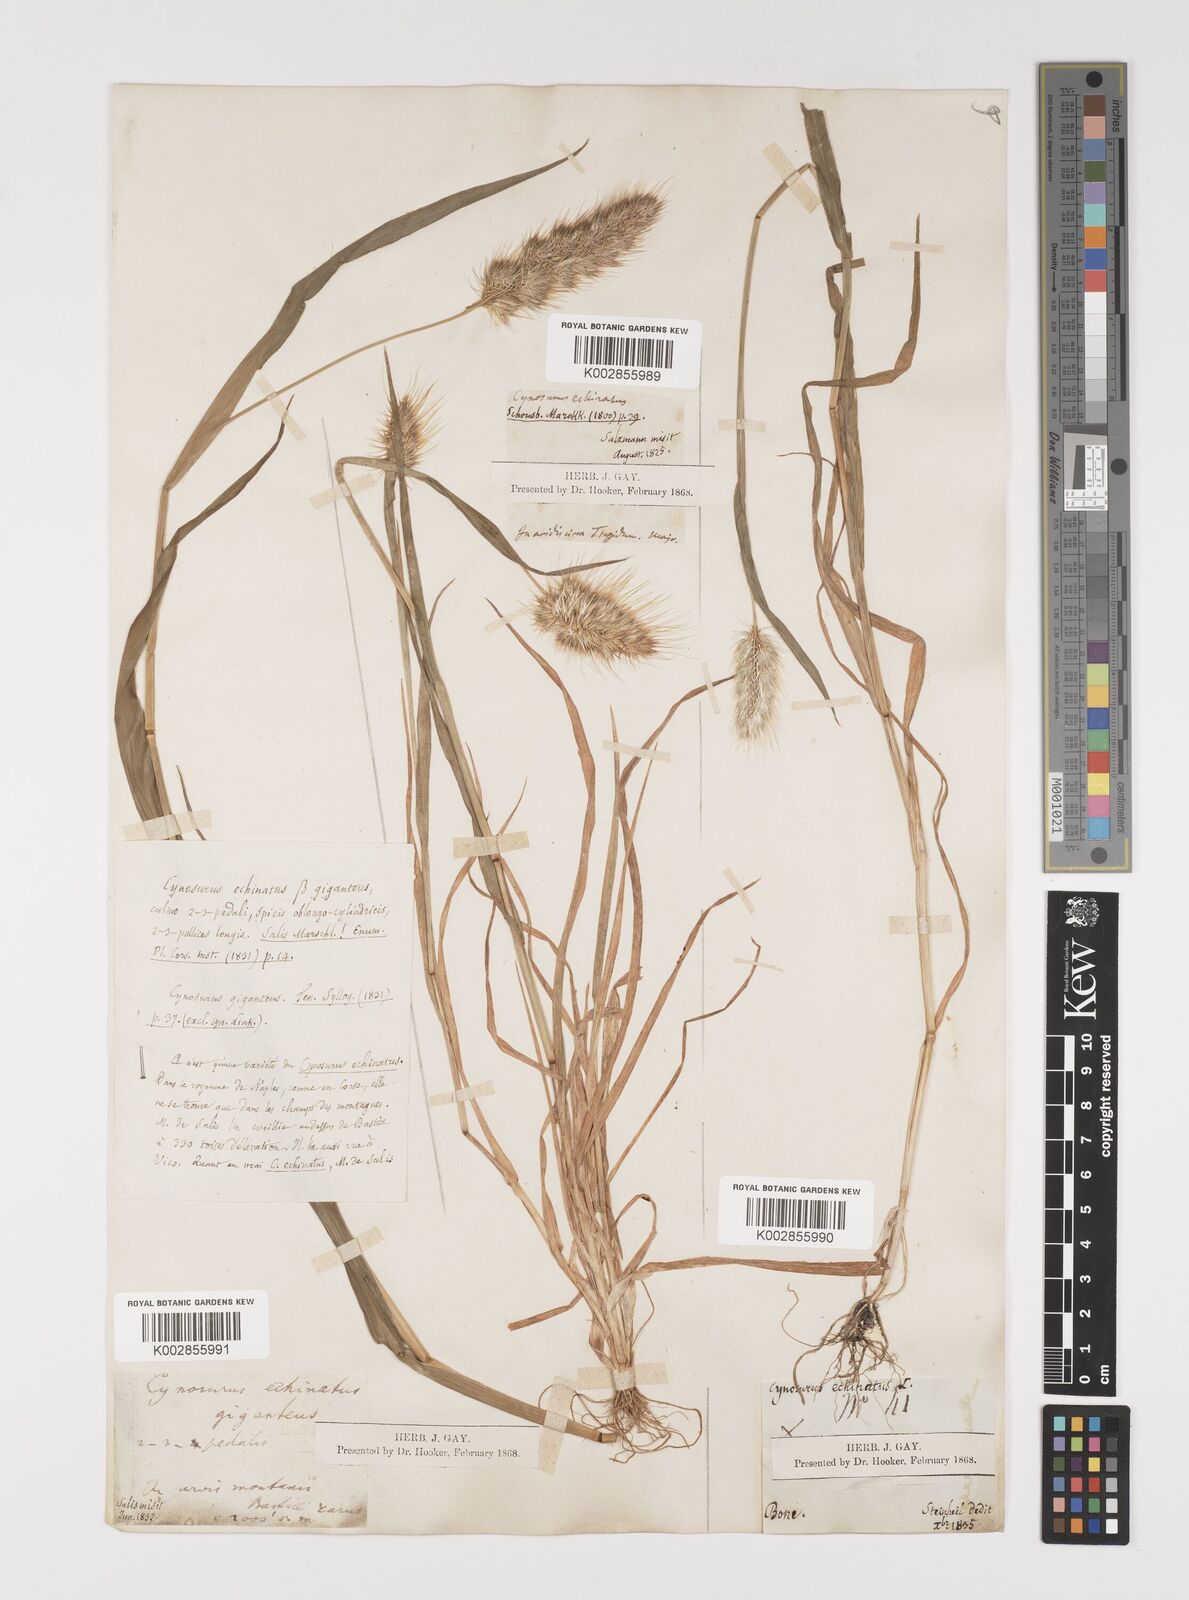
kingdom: Plantae
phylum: Tracheophyta
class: Liliopsida
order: Poales
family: Poaceae
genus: Cynosurus
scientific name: Cynosurus echinatus
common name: Rough dog's-tail
